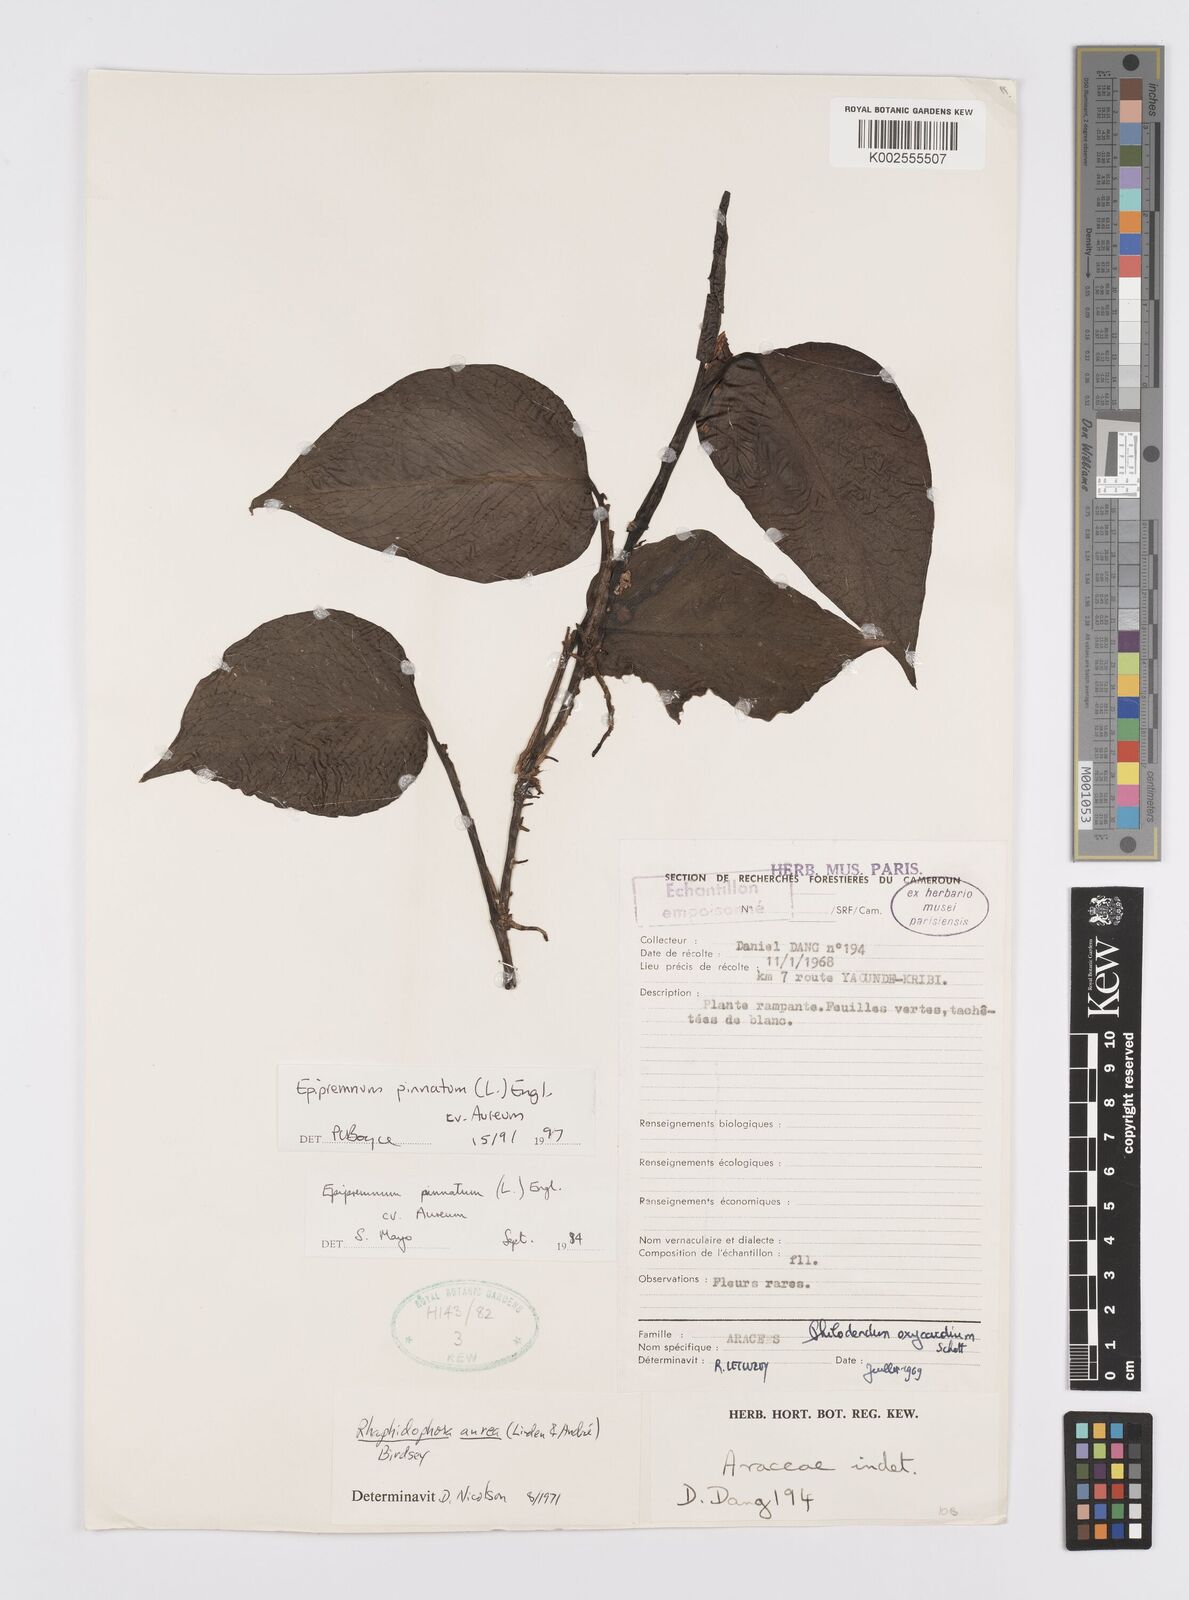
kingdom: Plantae
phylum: Tracheophyta
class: Liliopsida
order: Alismatales
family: Araceae
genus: Epipremnum
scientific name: Epipremnum aureum
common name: Golden hunter's-robe
